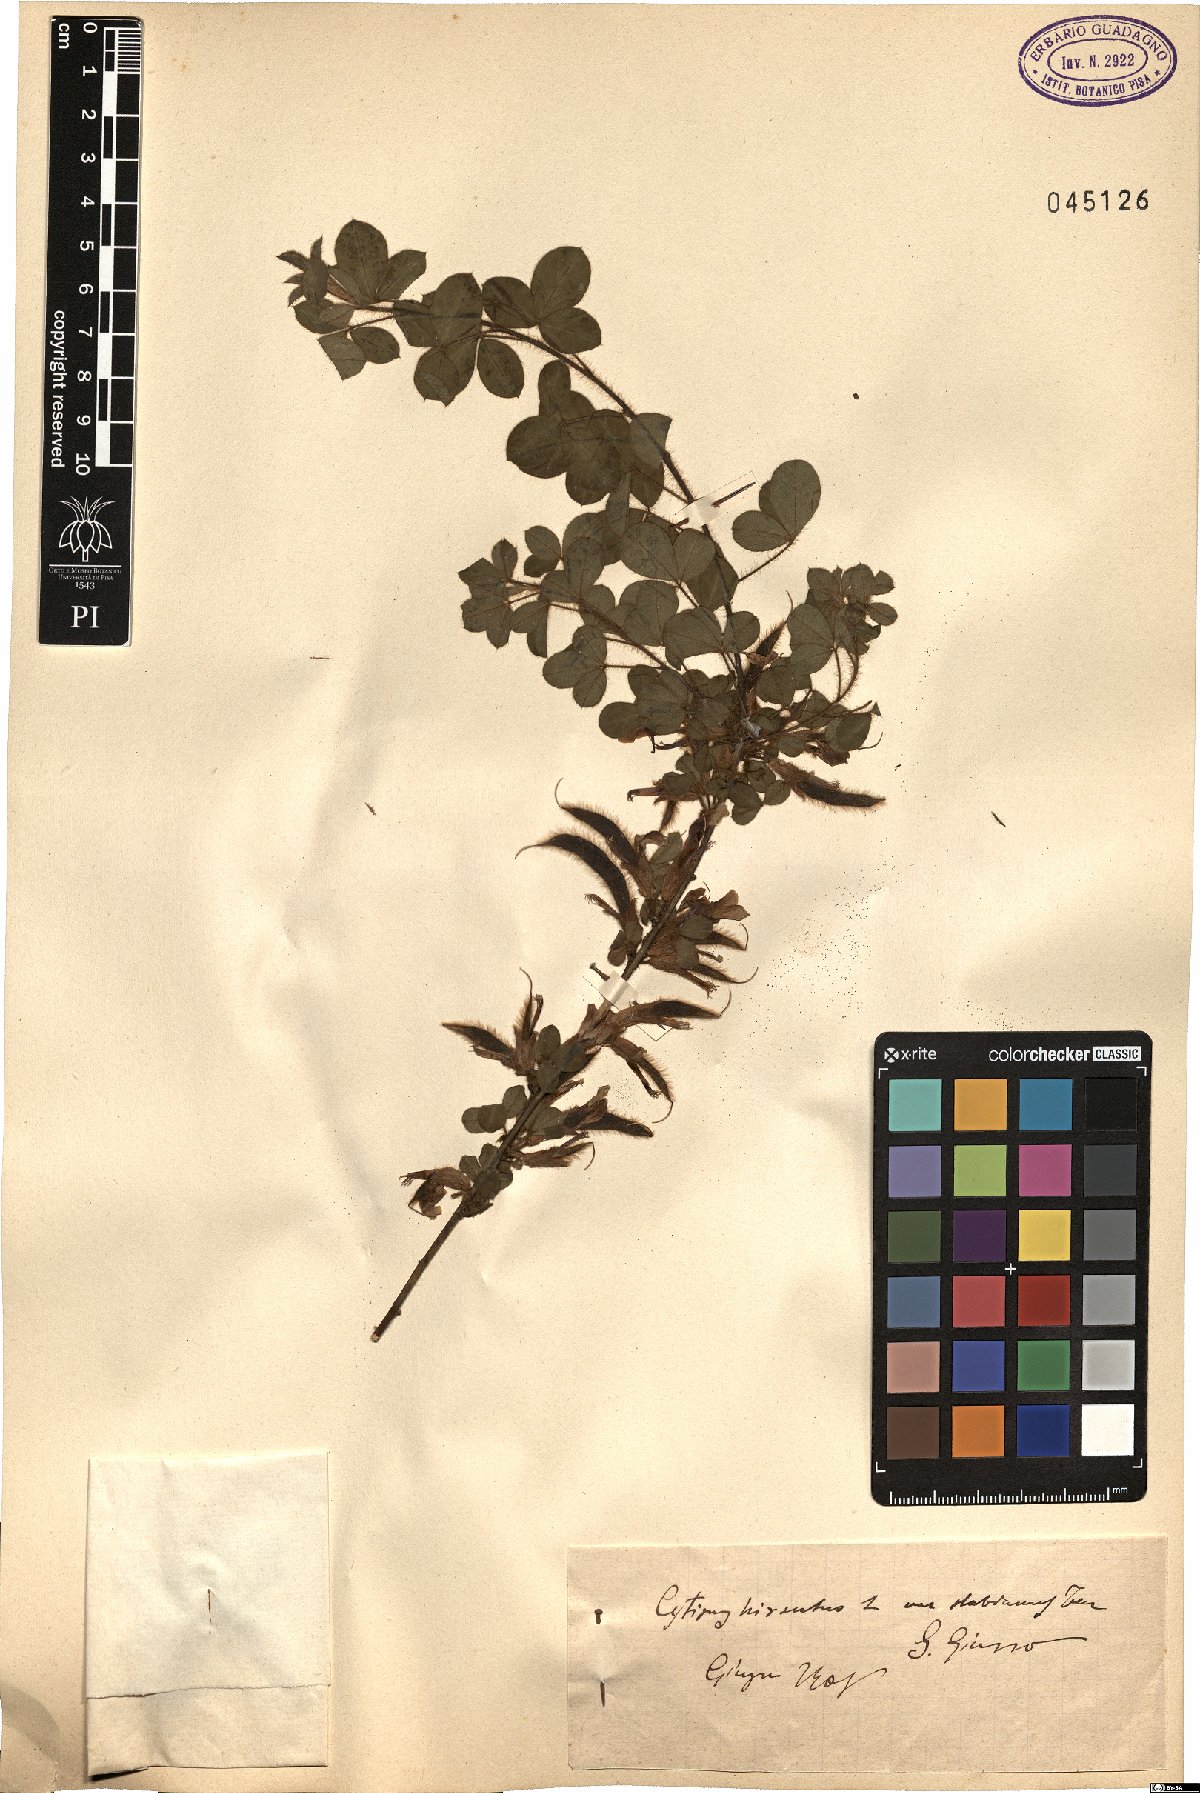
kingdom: Plantae
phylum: Tracheophyta
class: Magnoliopsida
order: Fabales
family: Fabaceae
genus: Chamaecytisus
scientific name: Chamaecytisus hirsutus
